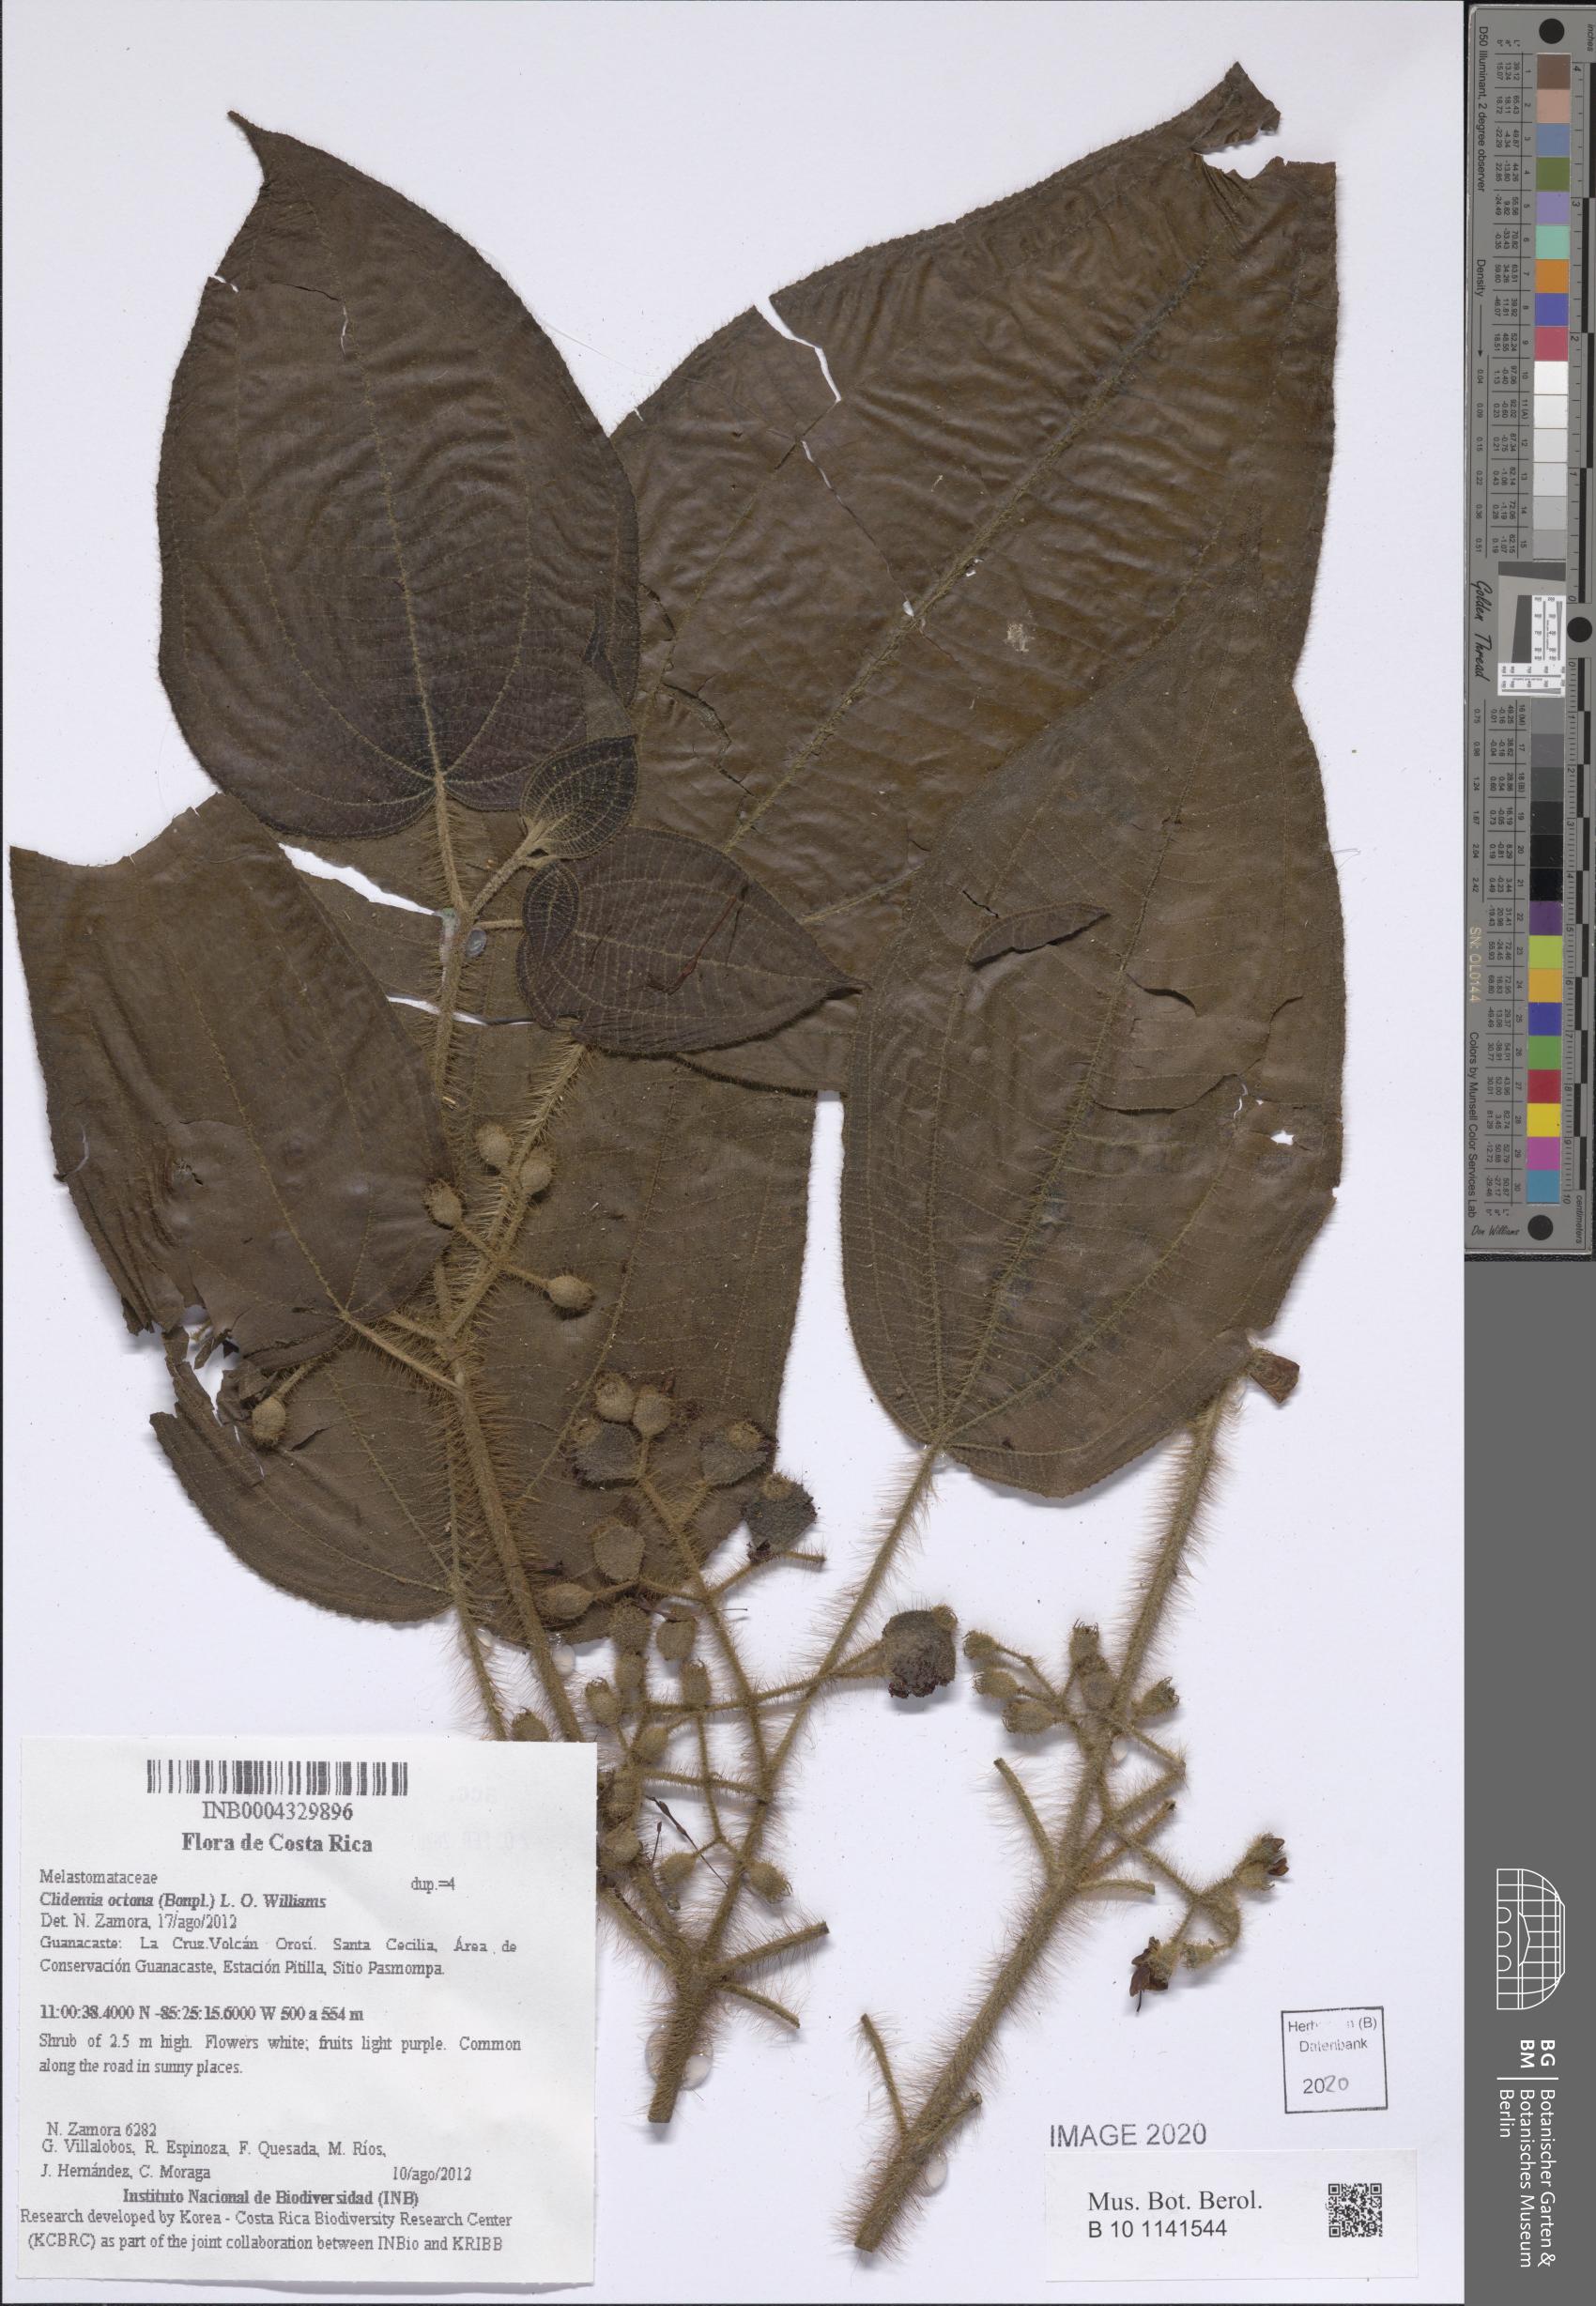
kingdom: Plantae
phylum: Tracheophyta
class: Magnoliopsida
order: Myrtales
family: Melastomataceae
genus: Miconia
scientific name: Miconia octona
